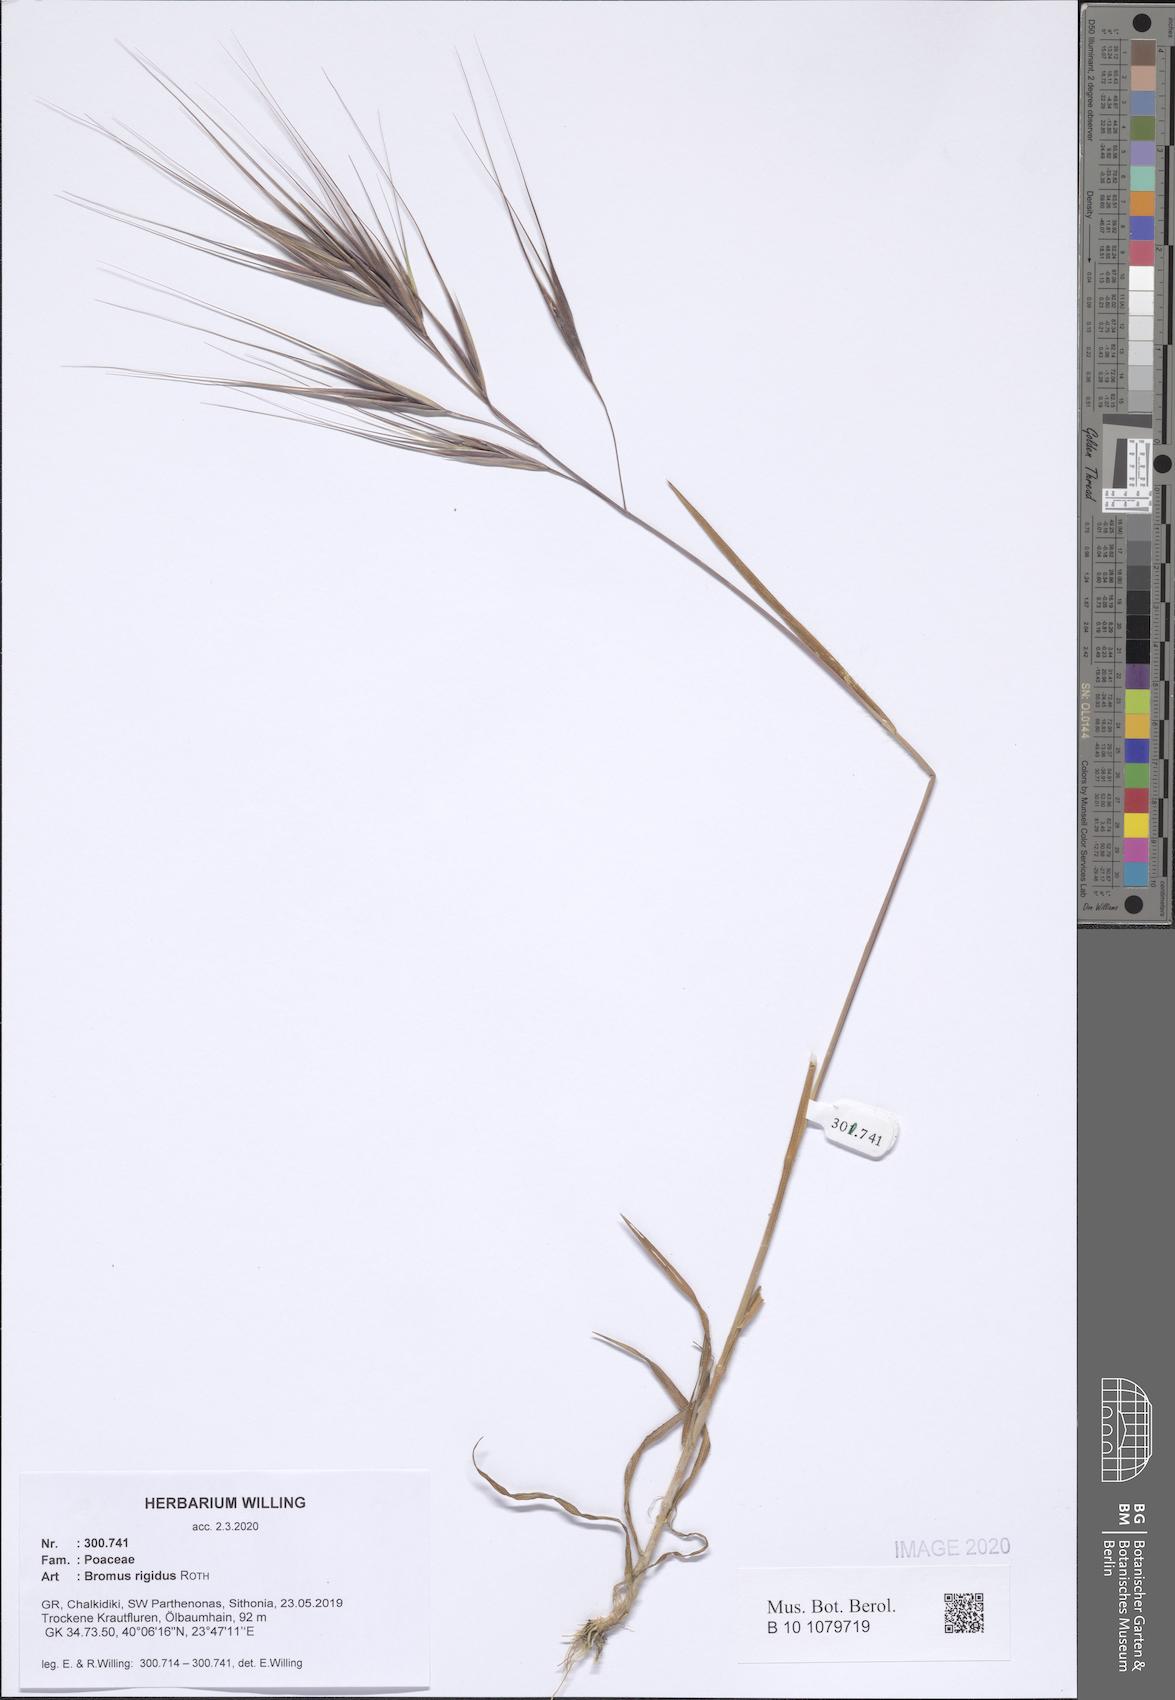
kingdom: Plantae
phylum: Tracheophyta
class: Liliopsida
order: Poales
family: Poaceae
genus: Bromus
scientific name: Bromus rigidus
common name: Ripgut brome
